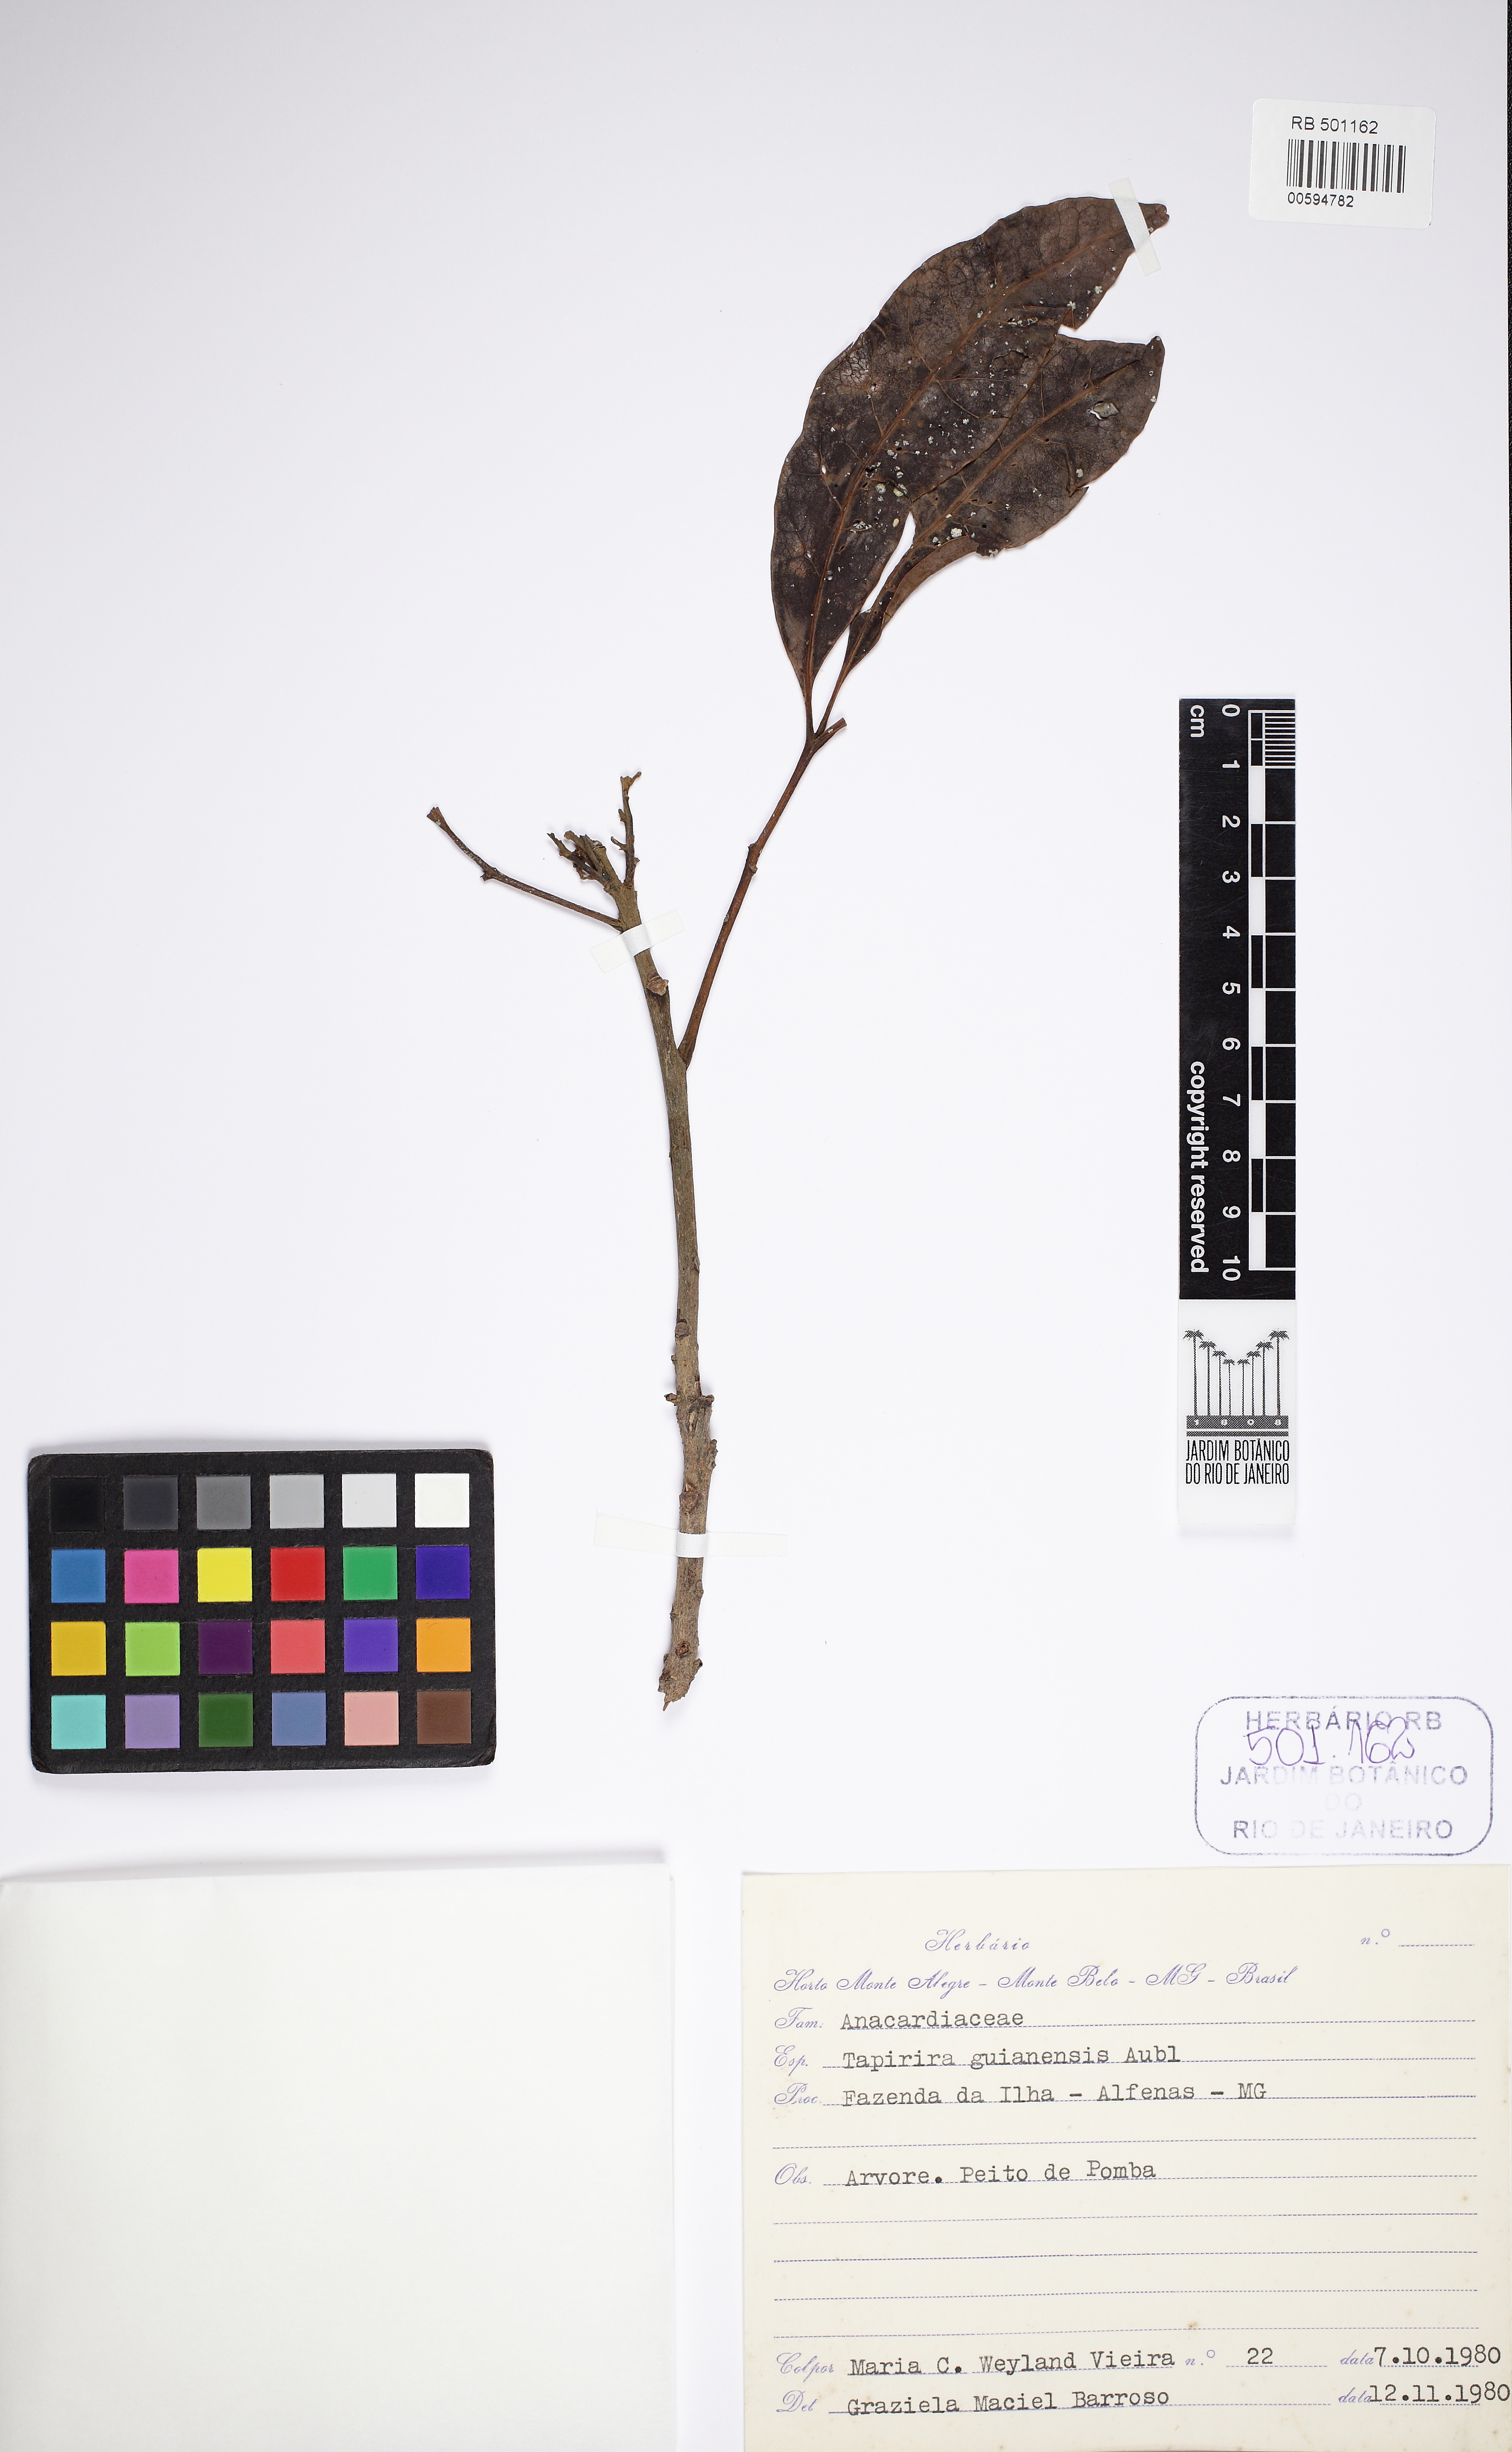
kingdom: Plantae
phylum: Tracheophyta
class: Magnoliopsida
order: Sapindales
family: Anacardiaceae
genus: Tapirira
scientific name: Tapirira guianensis
